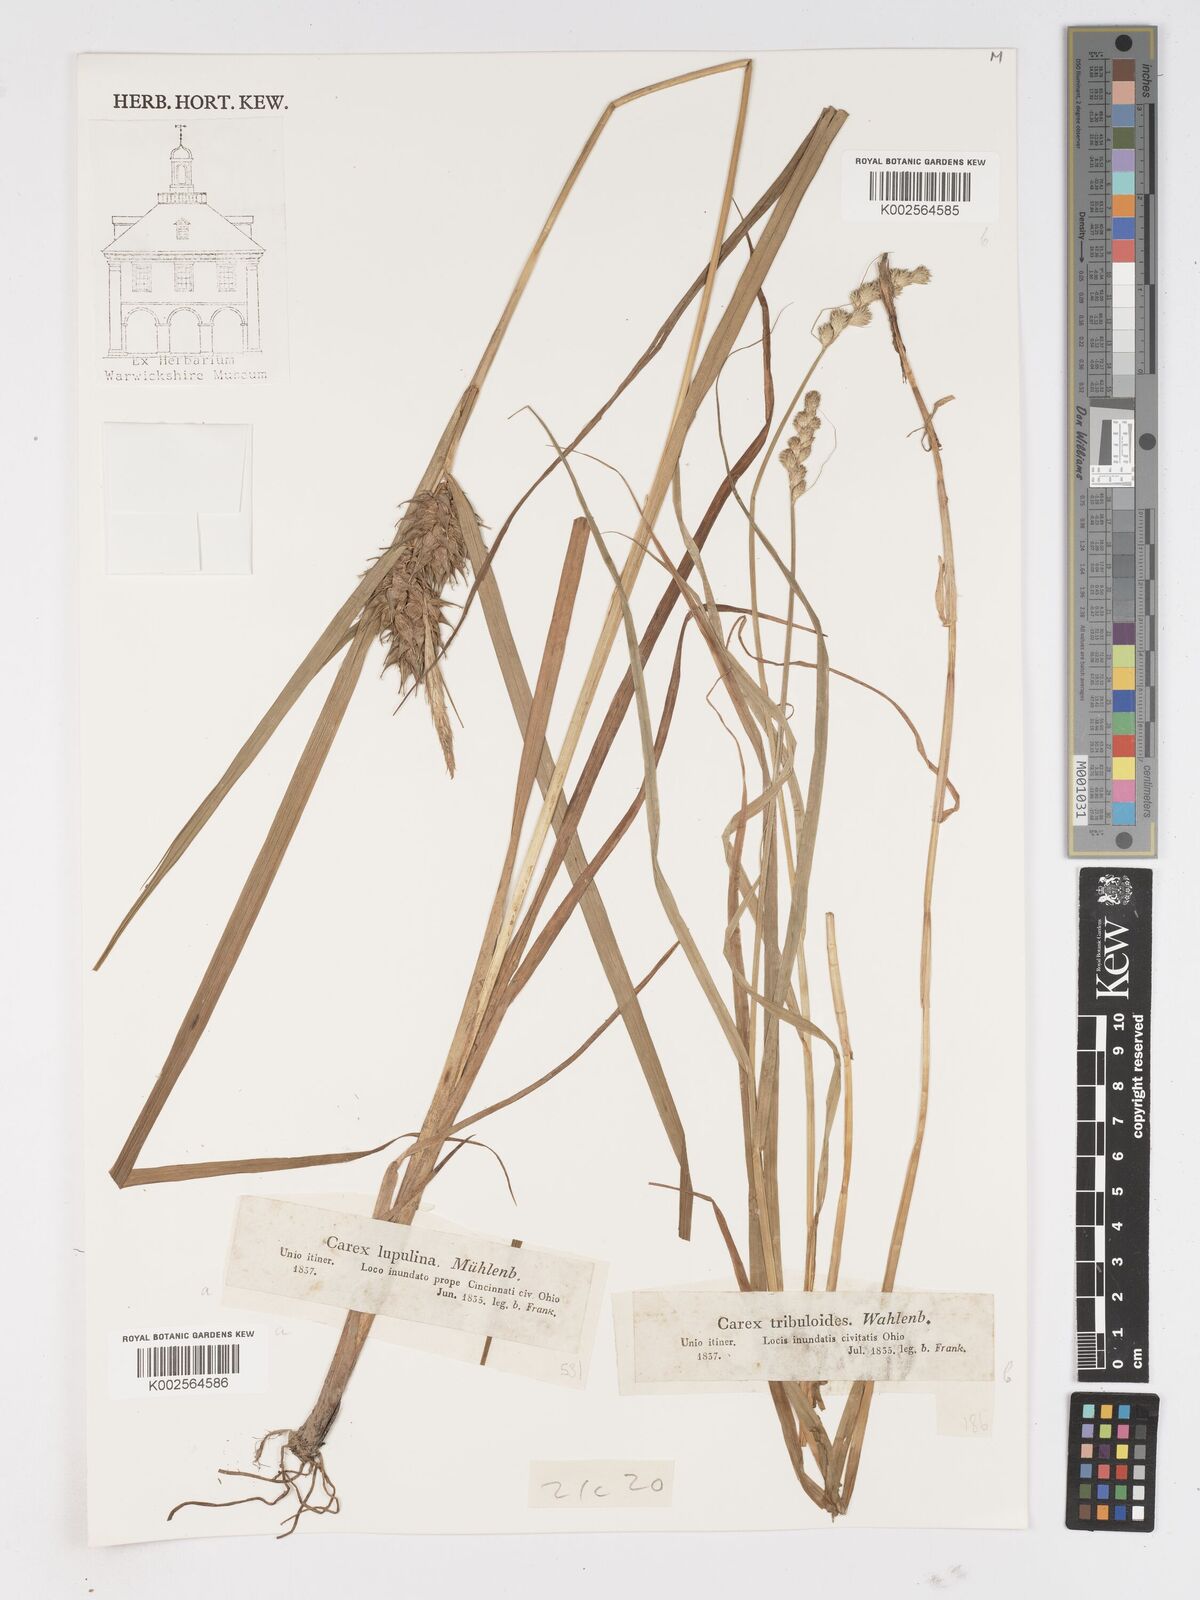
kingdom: Plantae
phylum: Tracheophyta
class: Liliopsida
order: Poales
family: Cyperaceae
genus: Carex
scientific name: Carex lupulina
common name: Hop sedge
